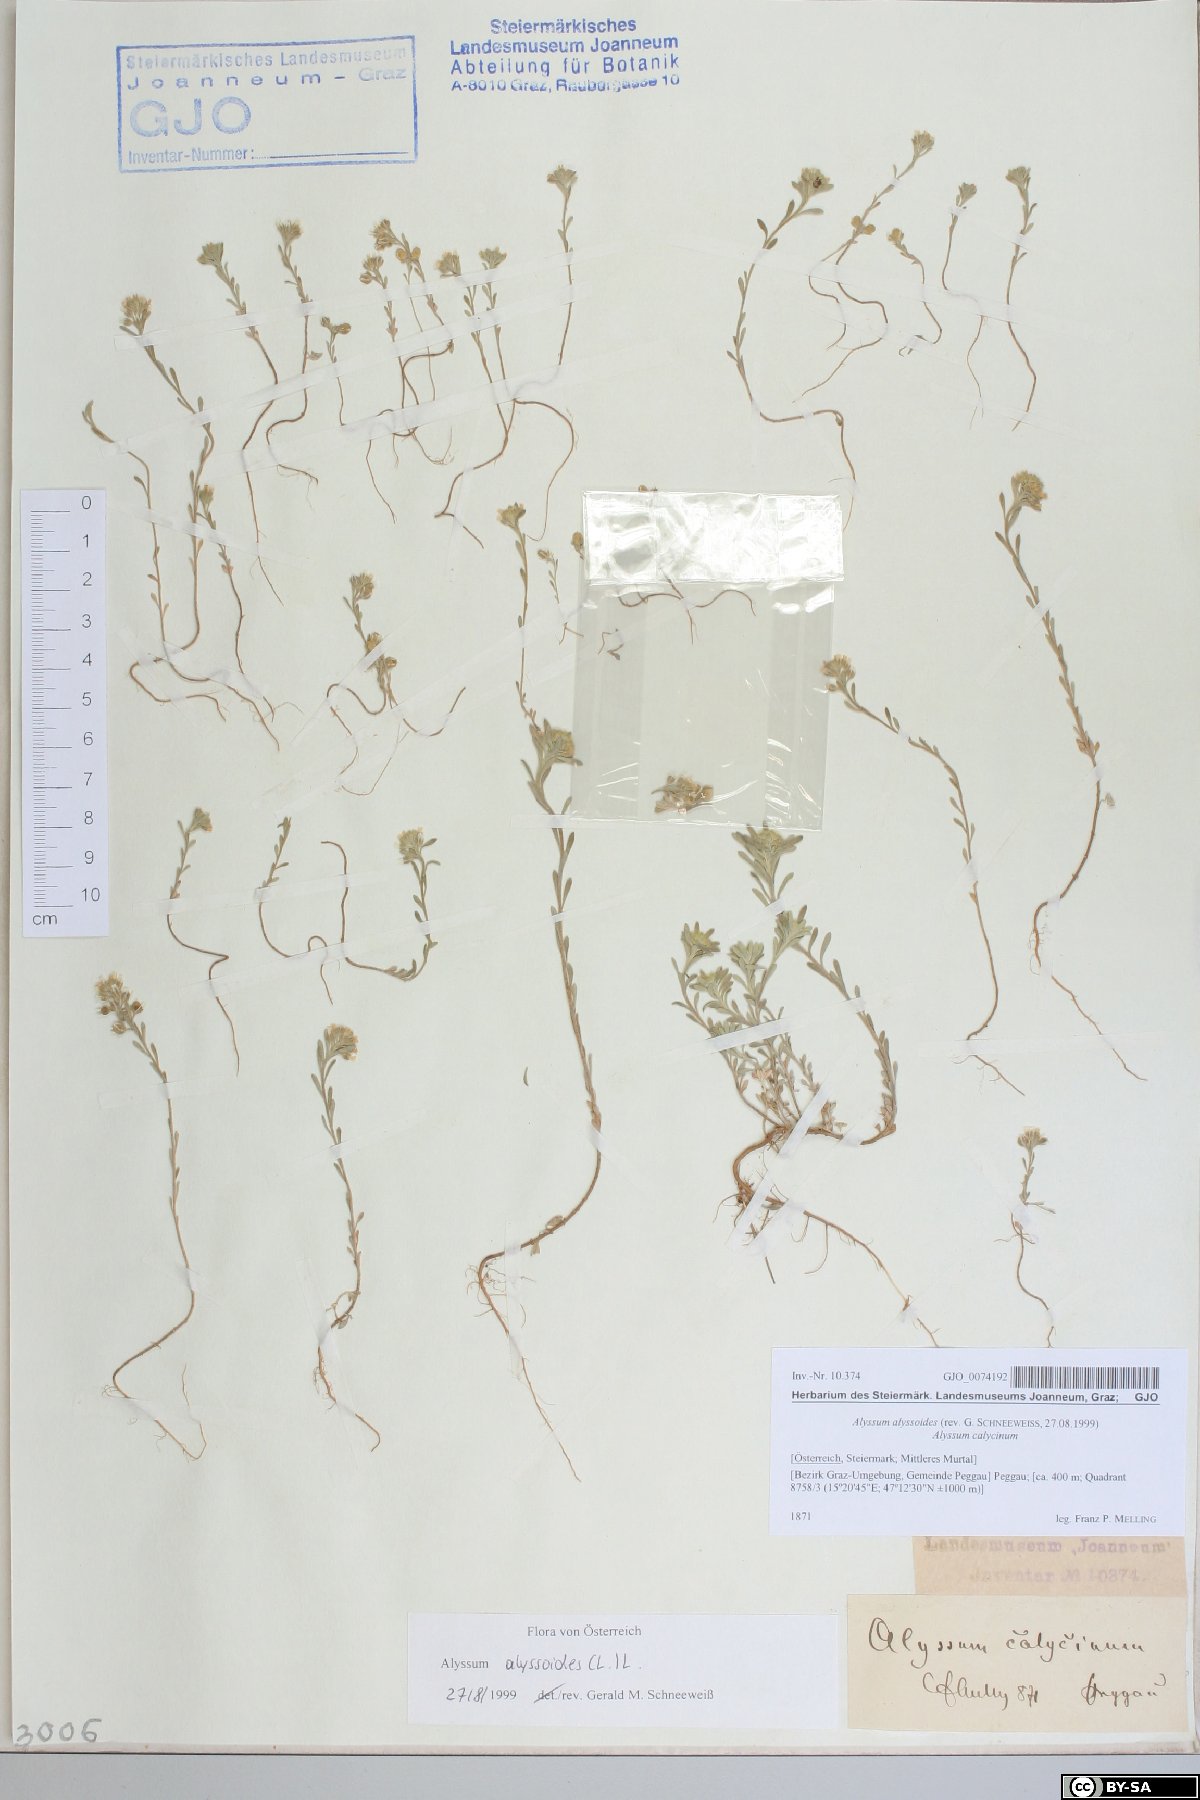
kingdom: Plantae
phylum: Tracheophyta
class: Magnoliopsida
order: Brassicales
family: Brassicaceae
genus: Alyssum
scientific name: Alyssum alyssoides
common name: Small alison
